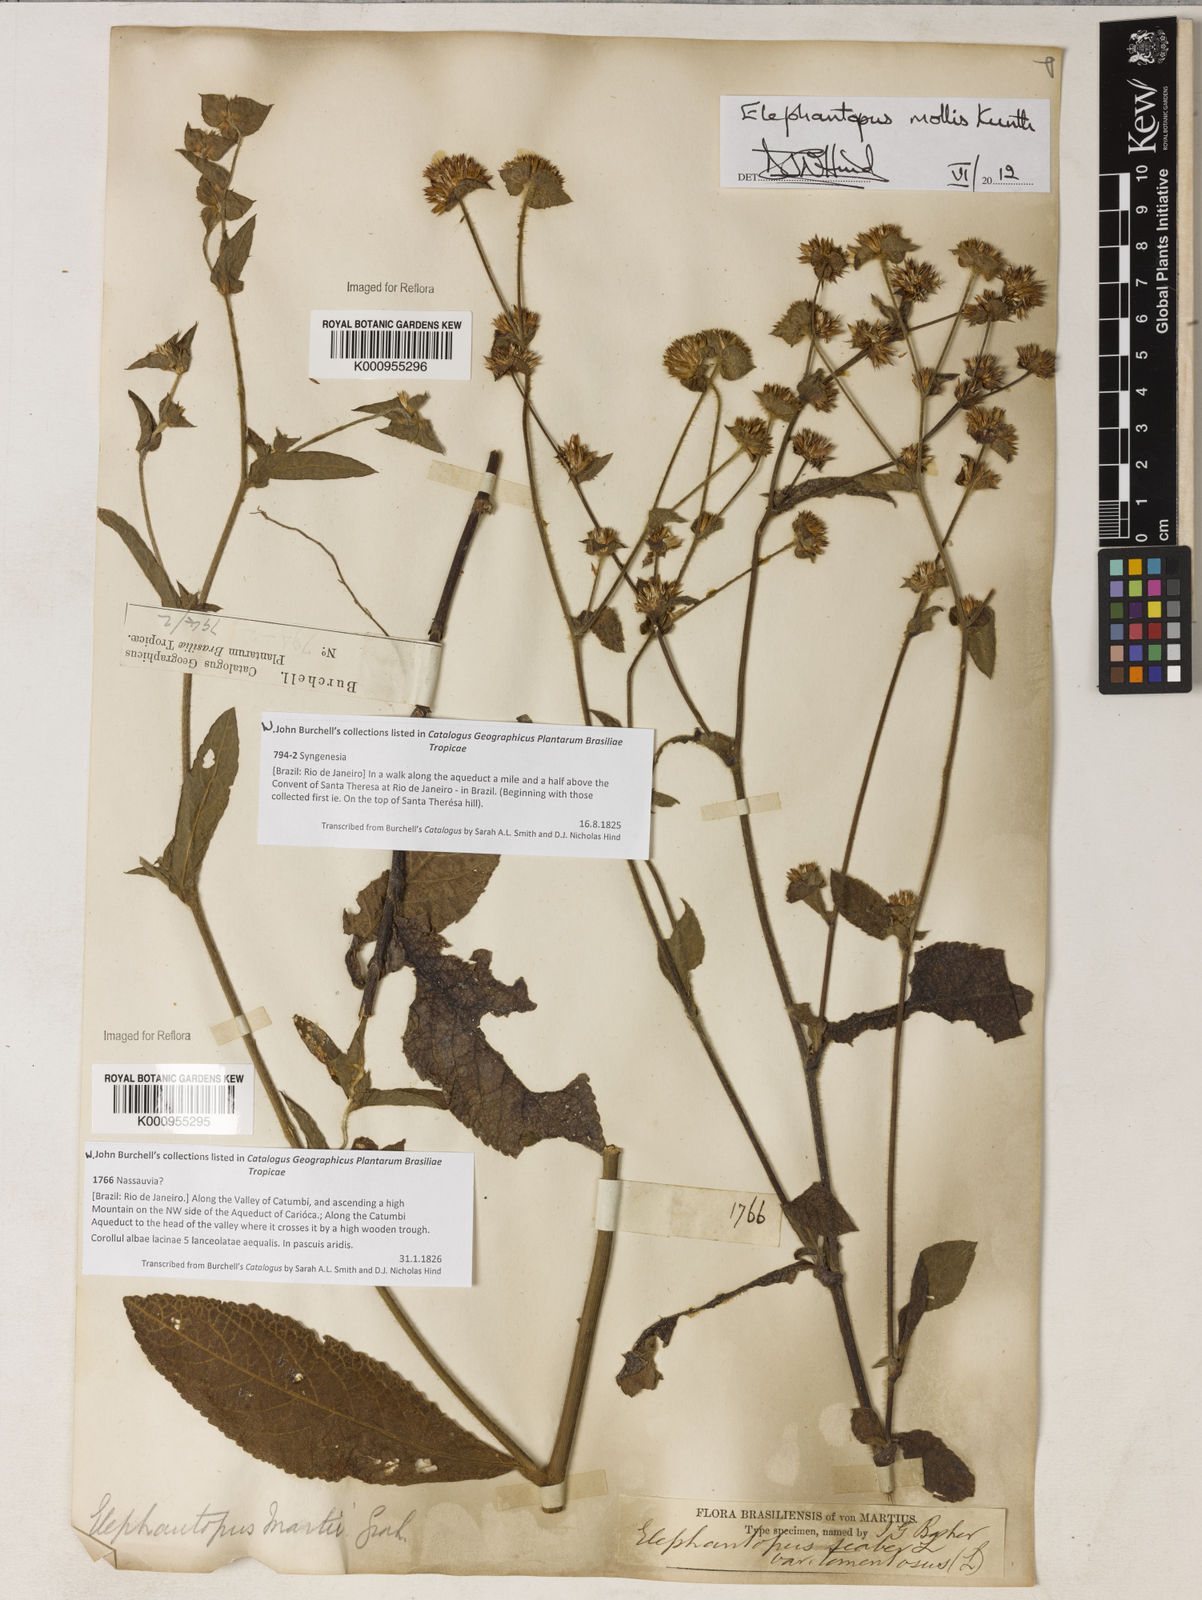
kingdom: Plantae
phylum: Tracheophyta
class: Magnoliopsida
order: Asterales
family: Asteraceae
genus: Elephantopus
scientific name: Elephantopus mollis
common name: Soft elephantsfoot
